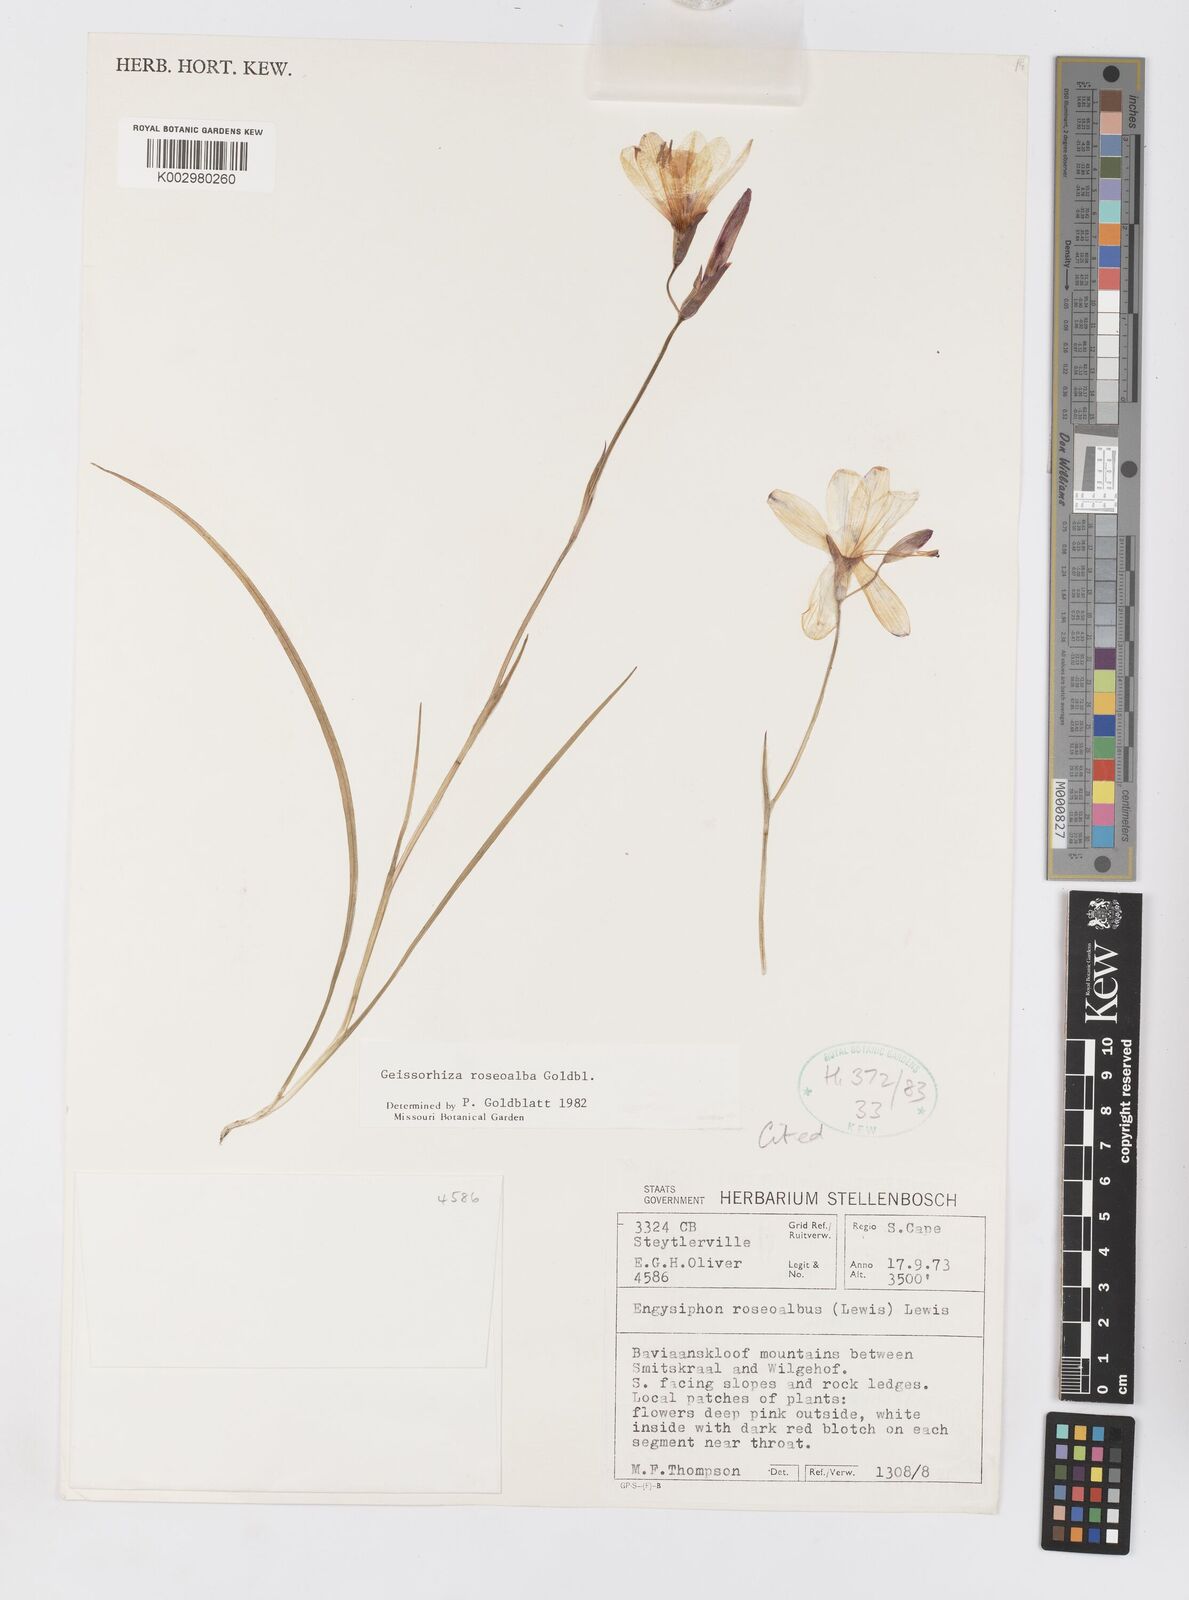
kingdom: Plantae
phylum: Tracheophyta
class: Liliopsida
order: Asparagales
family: Iridaceae
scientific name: Iridaceae
